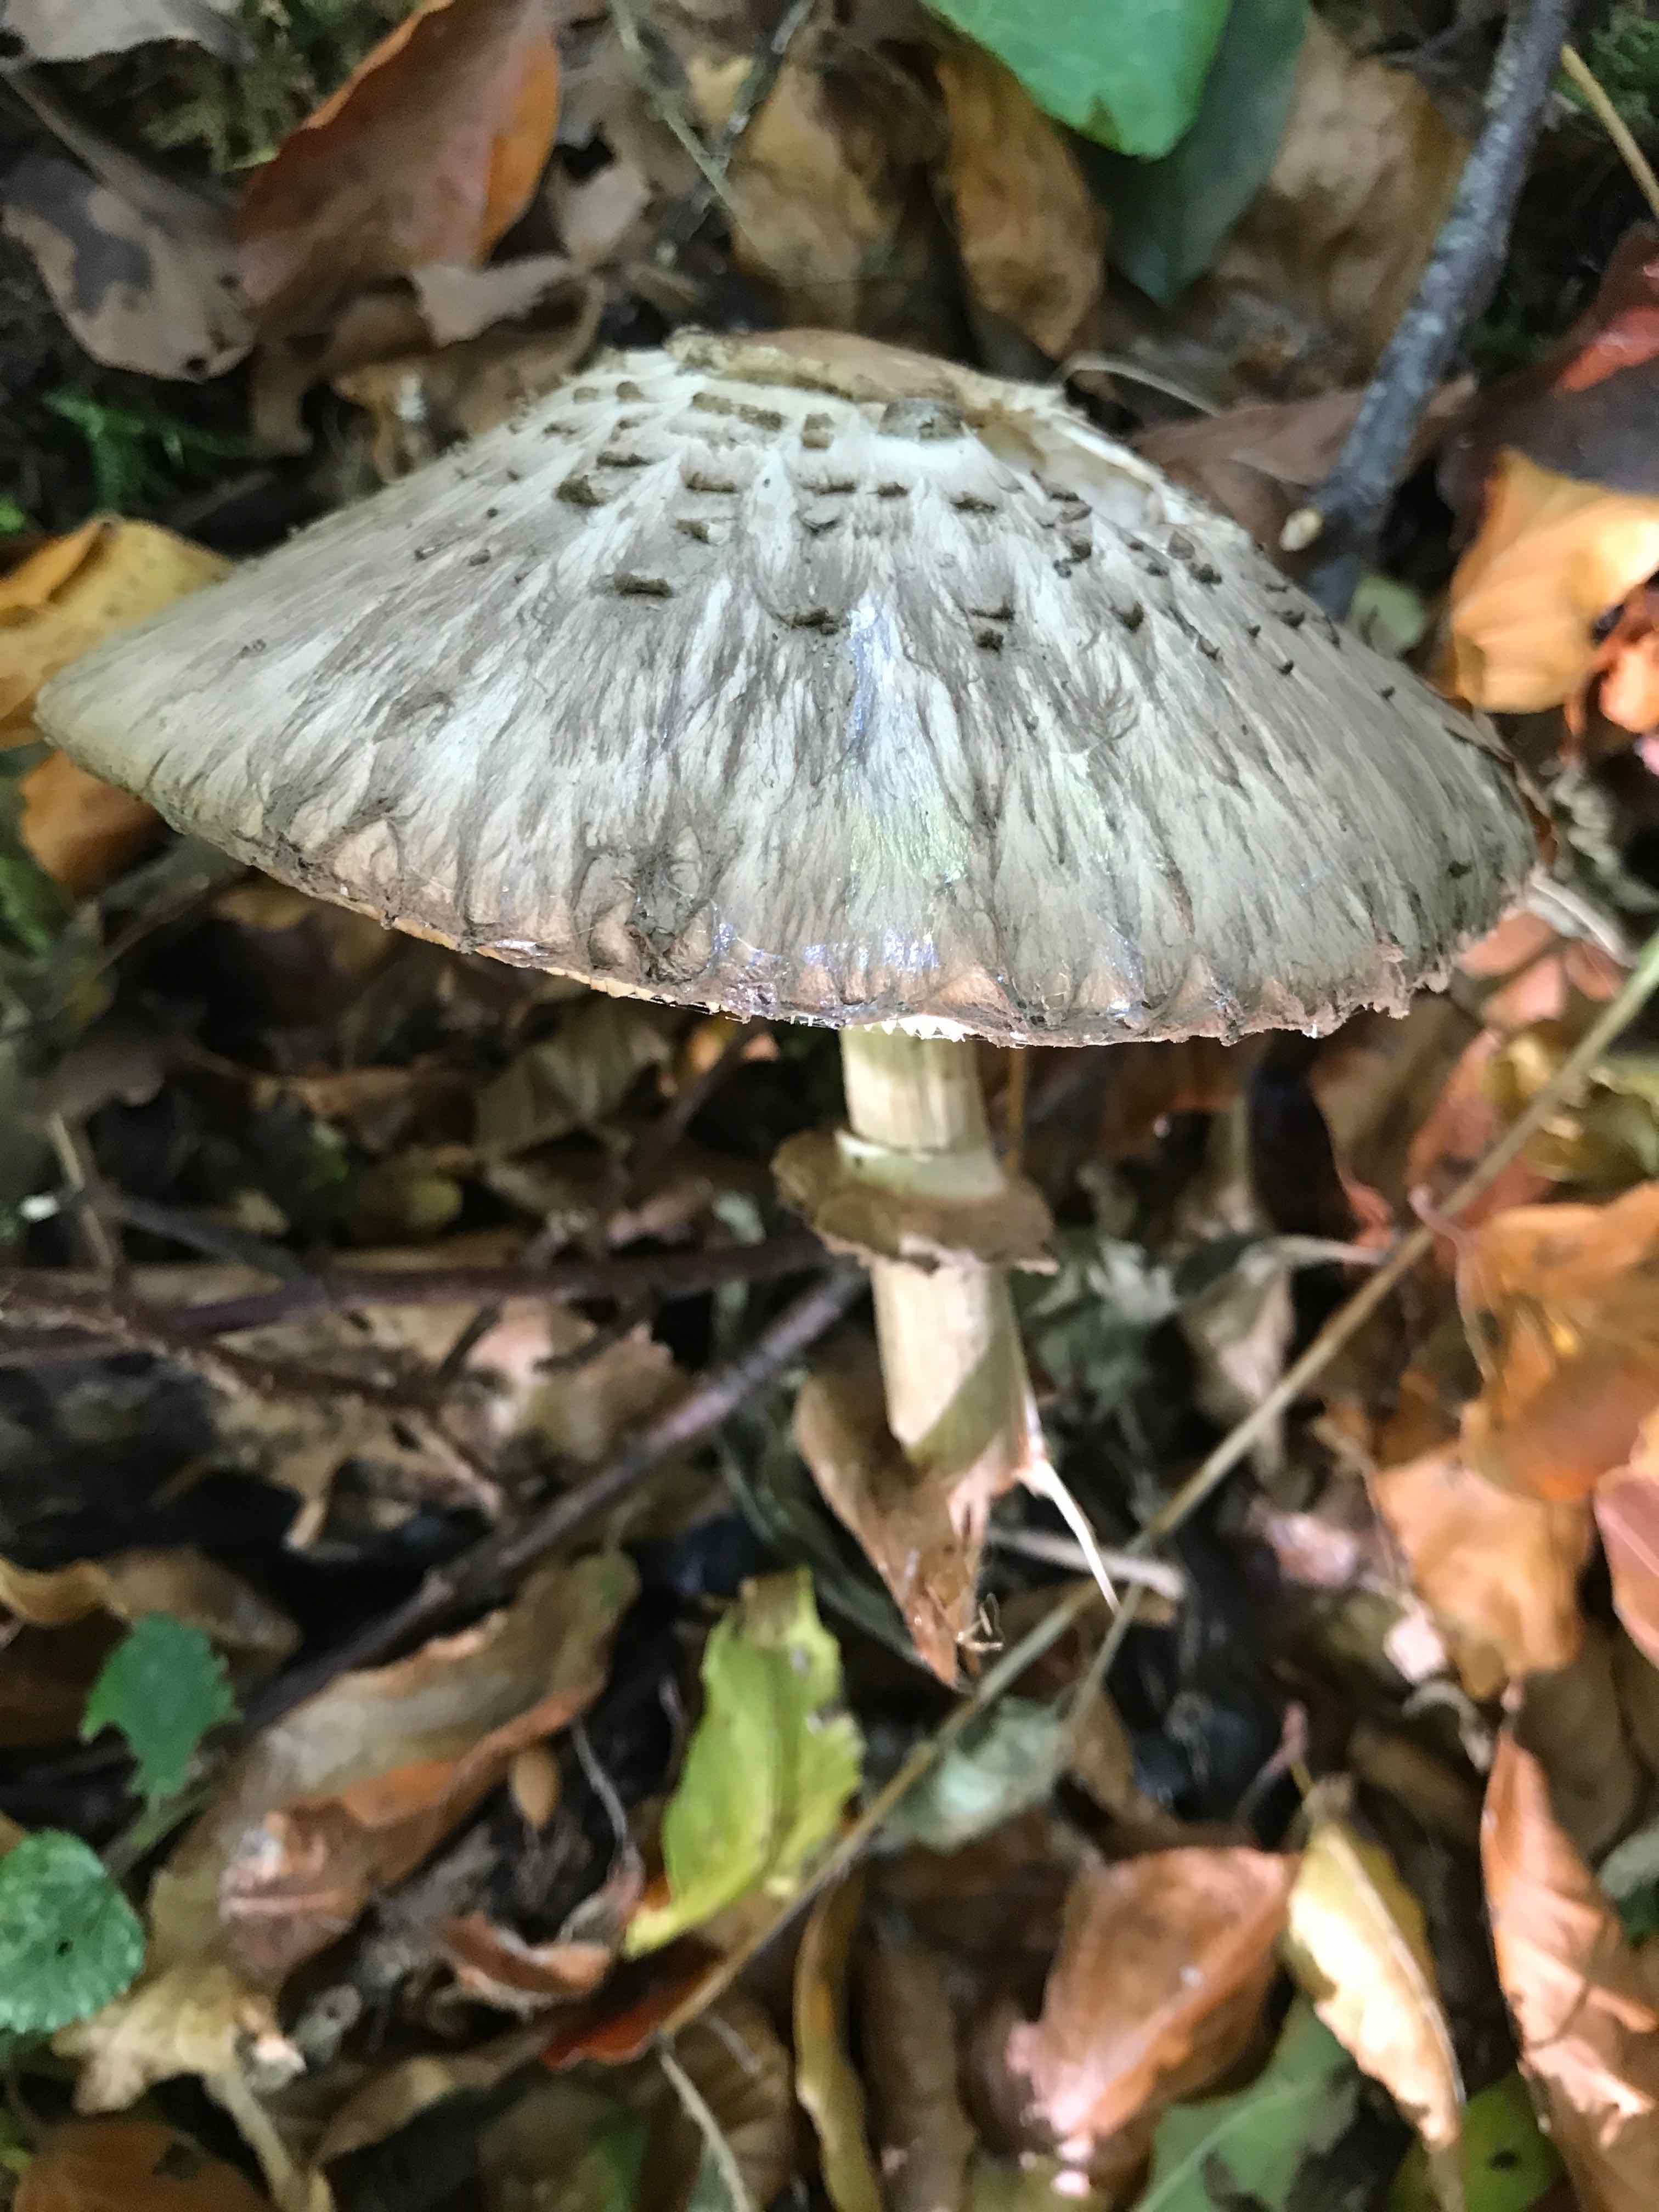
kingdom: Fungi
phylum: Basidiomycota
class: Agaricomycetes
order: Agaricales
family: Agaricaceae
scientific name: Agaricaceae
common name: champignonfamilien
